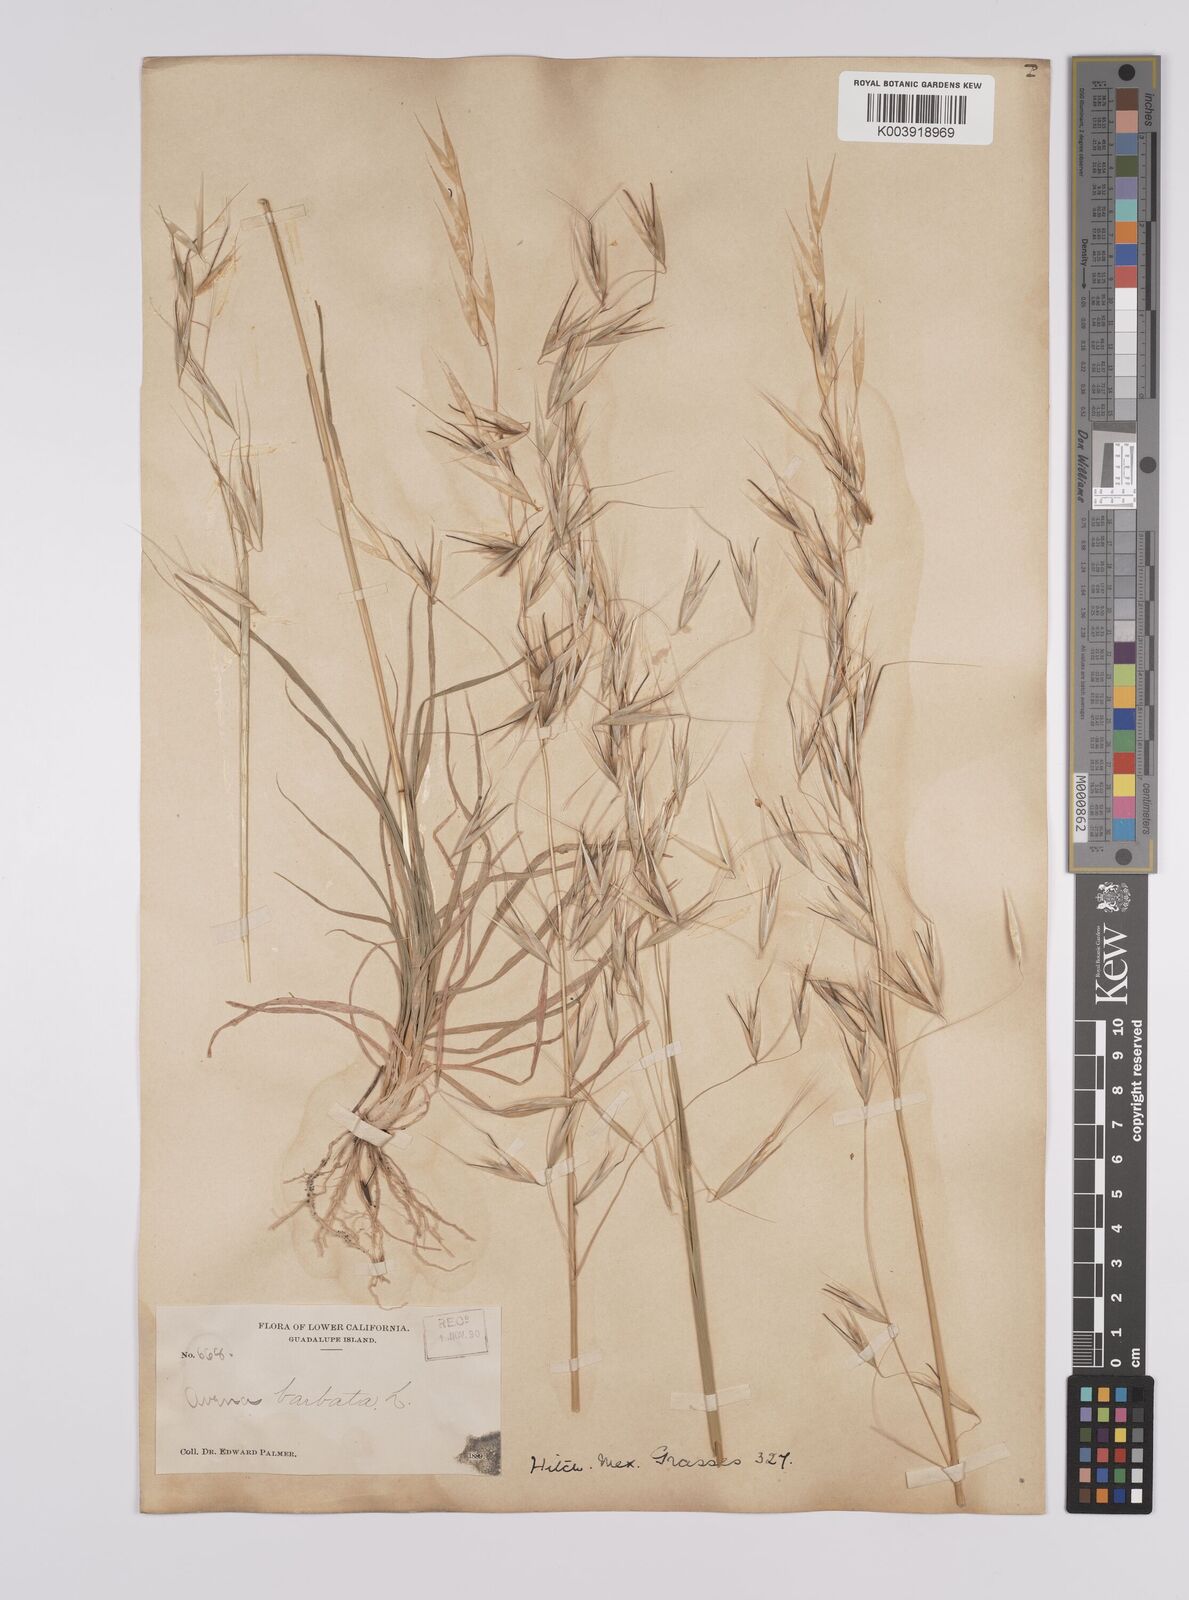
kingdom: Plantae
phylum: Tracheophyta
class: Liliopsida
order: Poales
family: Poaceae
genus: Avena
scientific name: Avena
